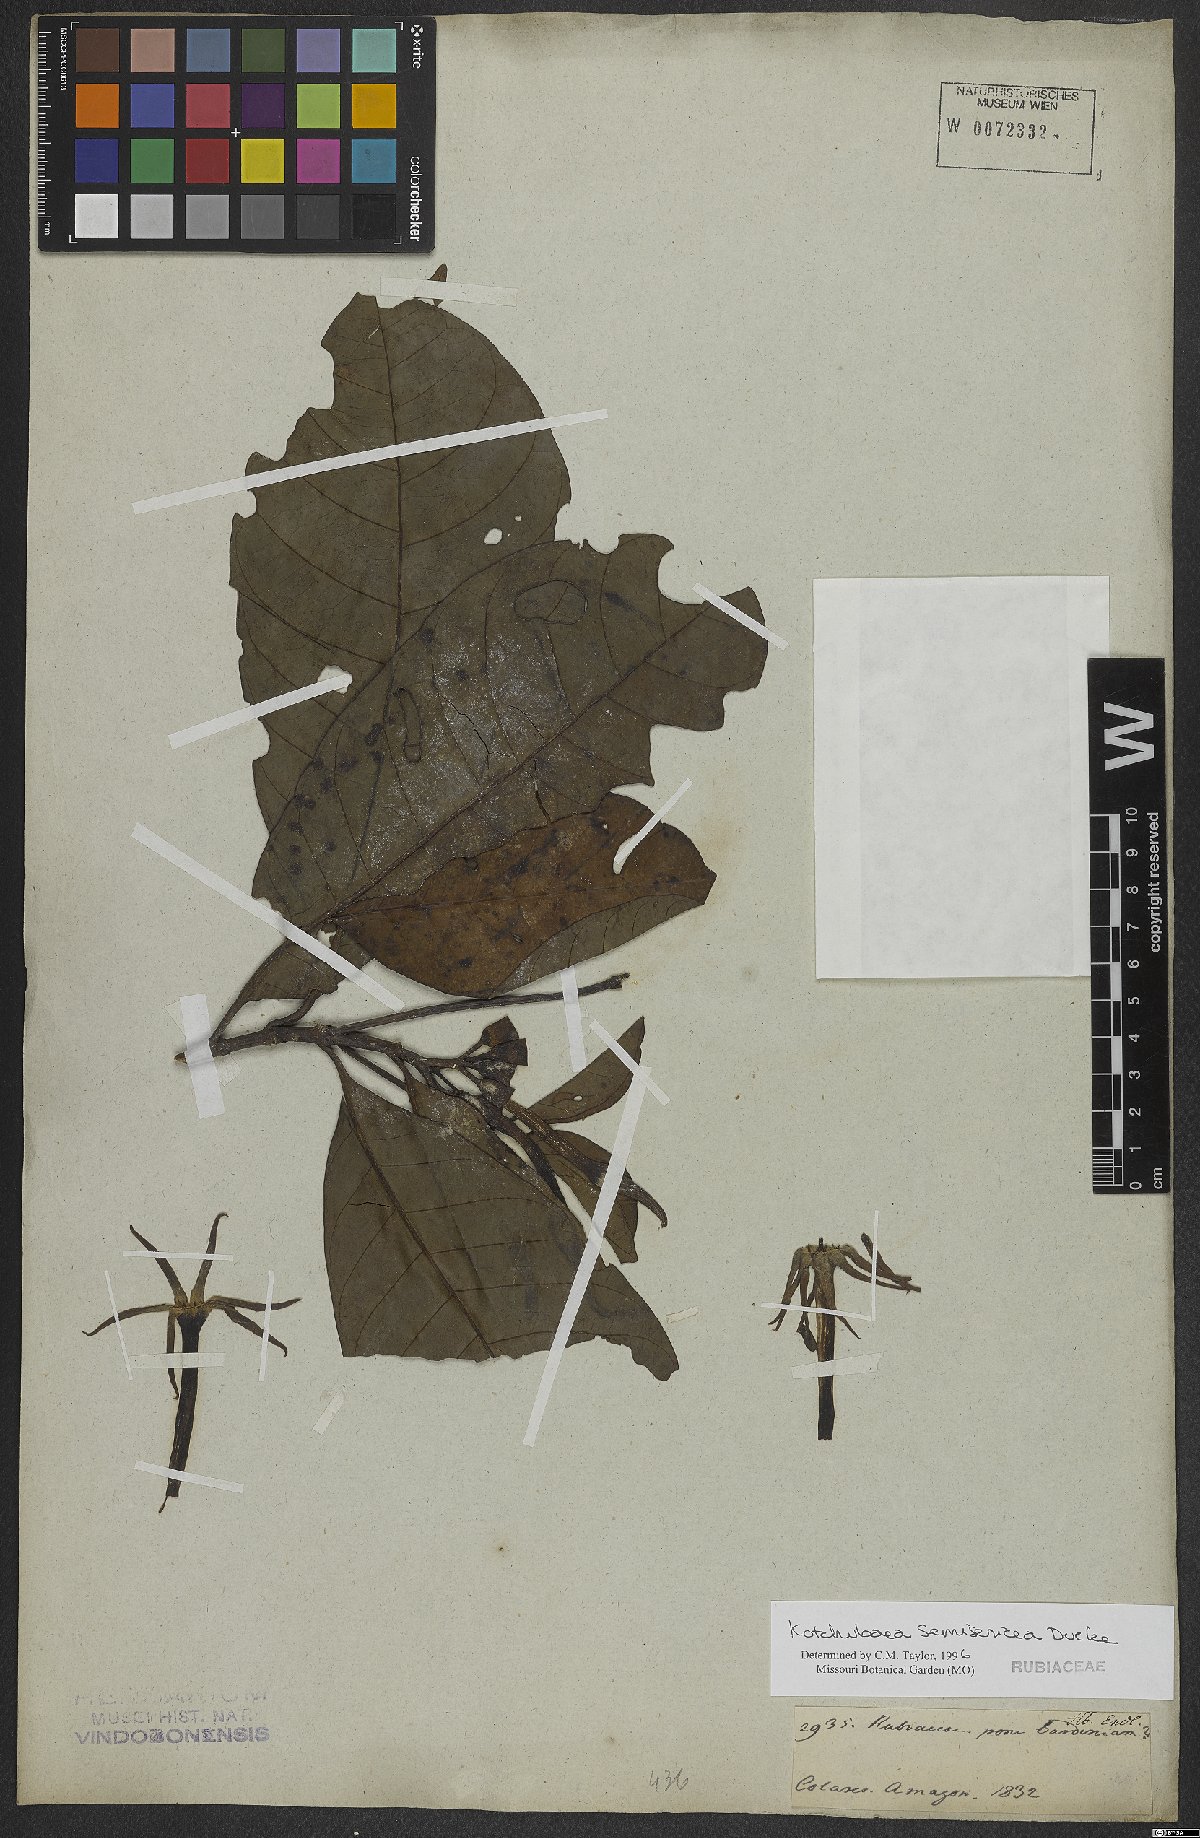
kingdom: Plantae
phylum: Tracheophyta
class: Magnoliopsida
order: Gentianales
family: Rubiaceae
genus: Kutchubaea
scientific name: Kutchubaea semisericea
